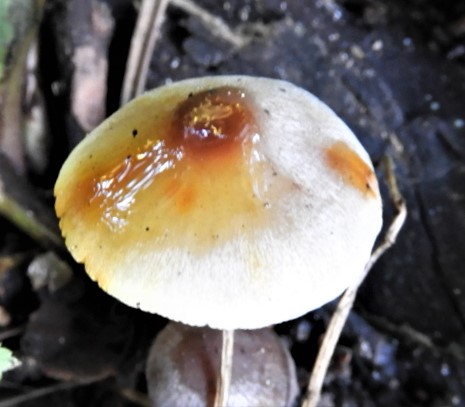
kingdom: Fungi
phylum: Basidiomycota
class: Agaricomycetes
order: Agaricales
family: Mycenaceae
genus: Mycena
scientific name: Mycena crocata
